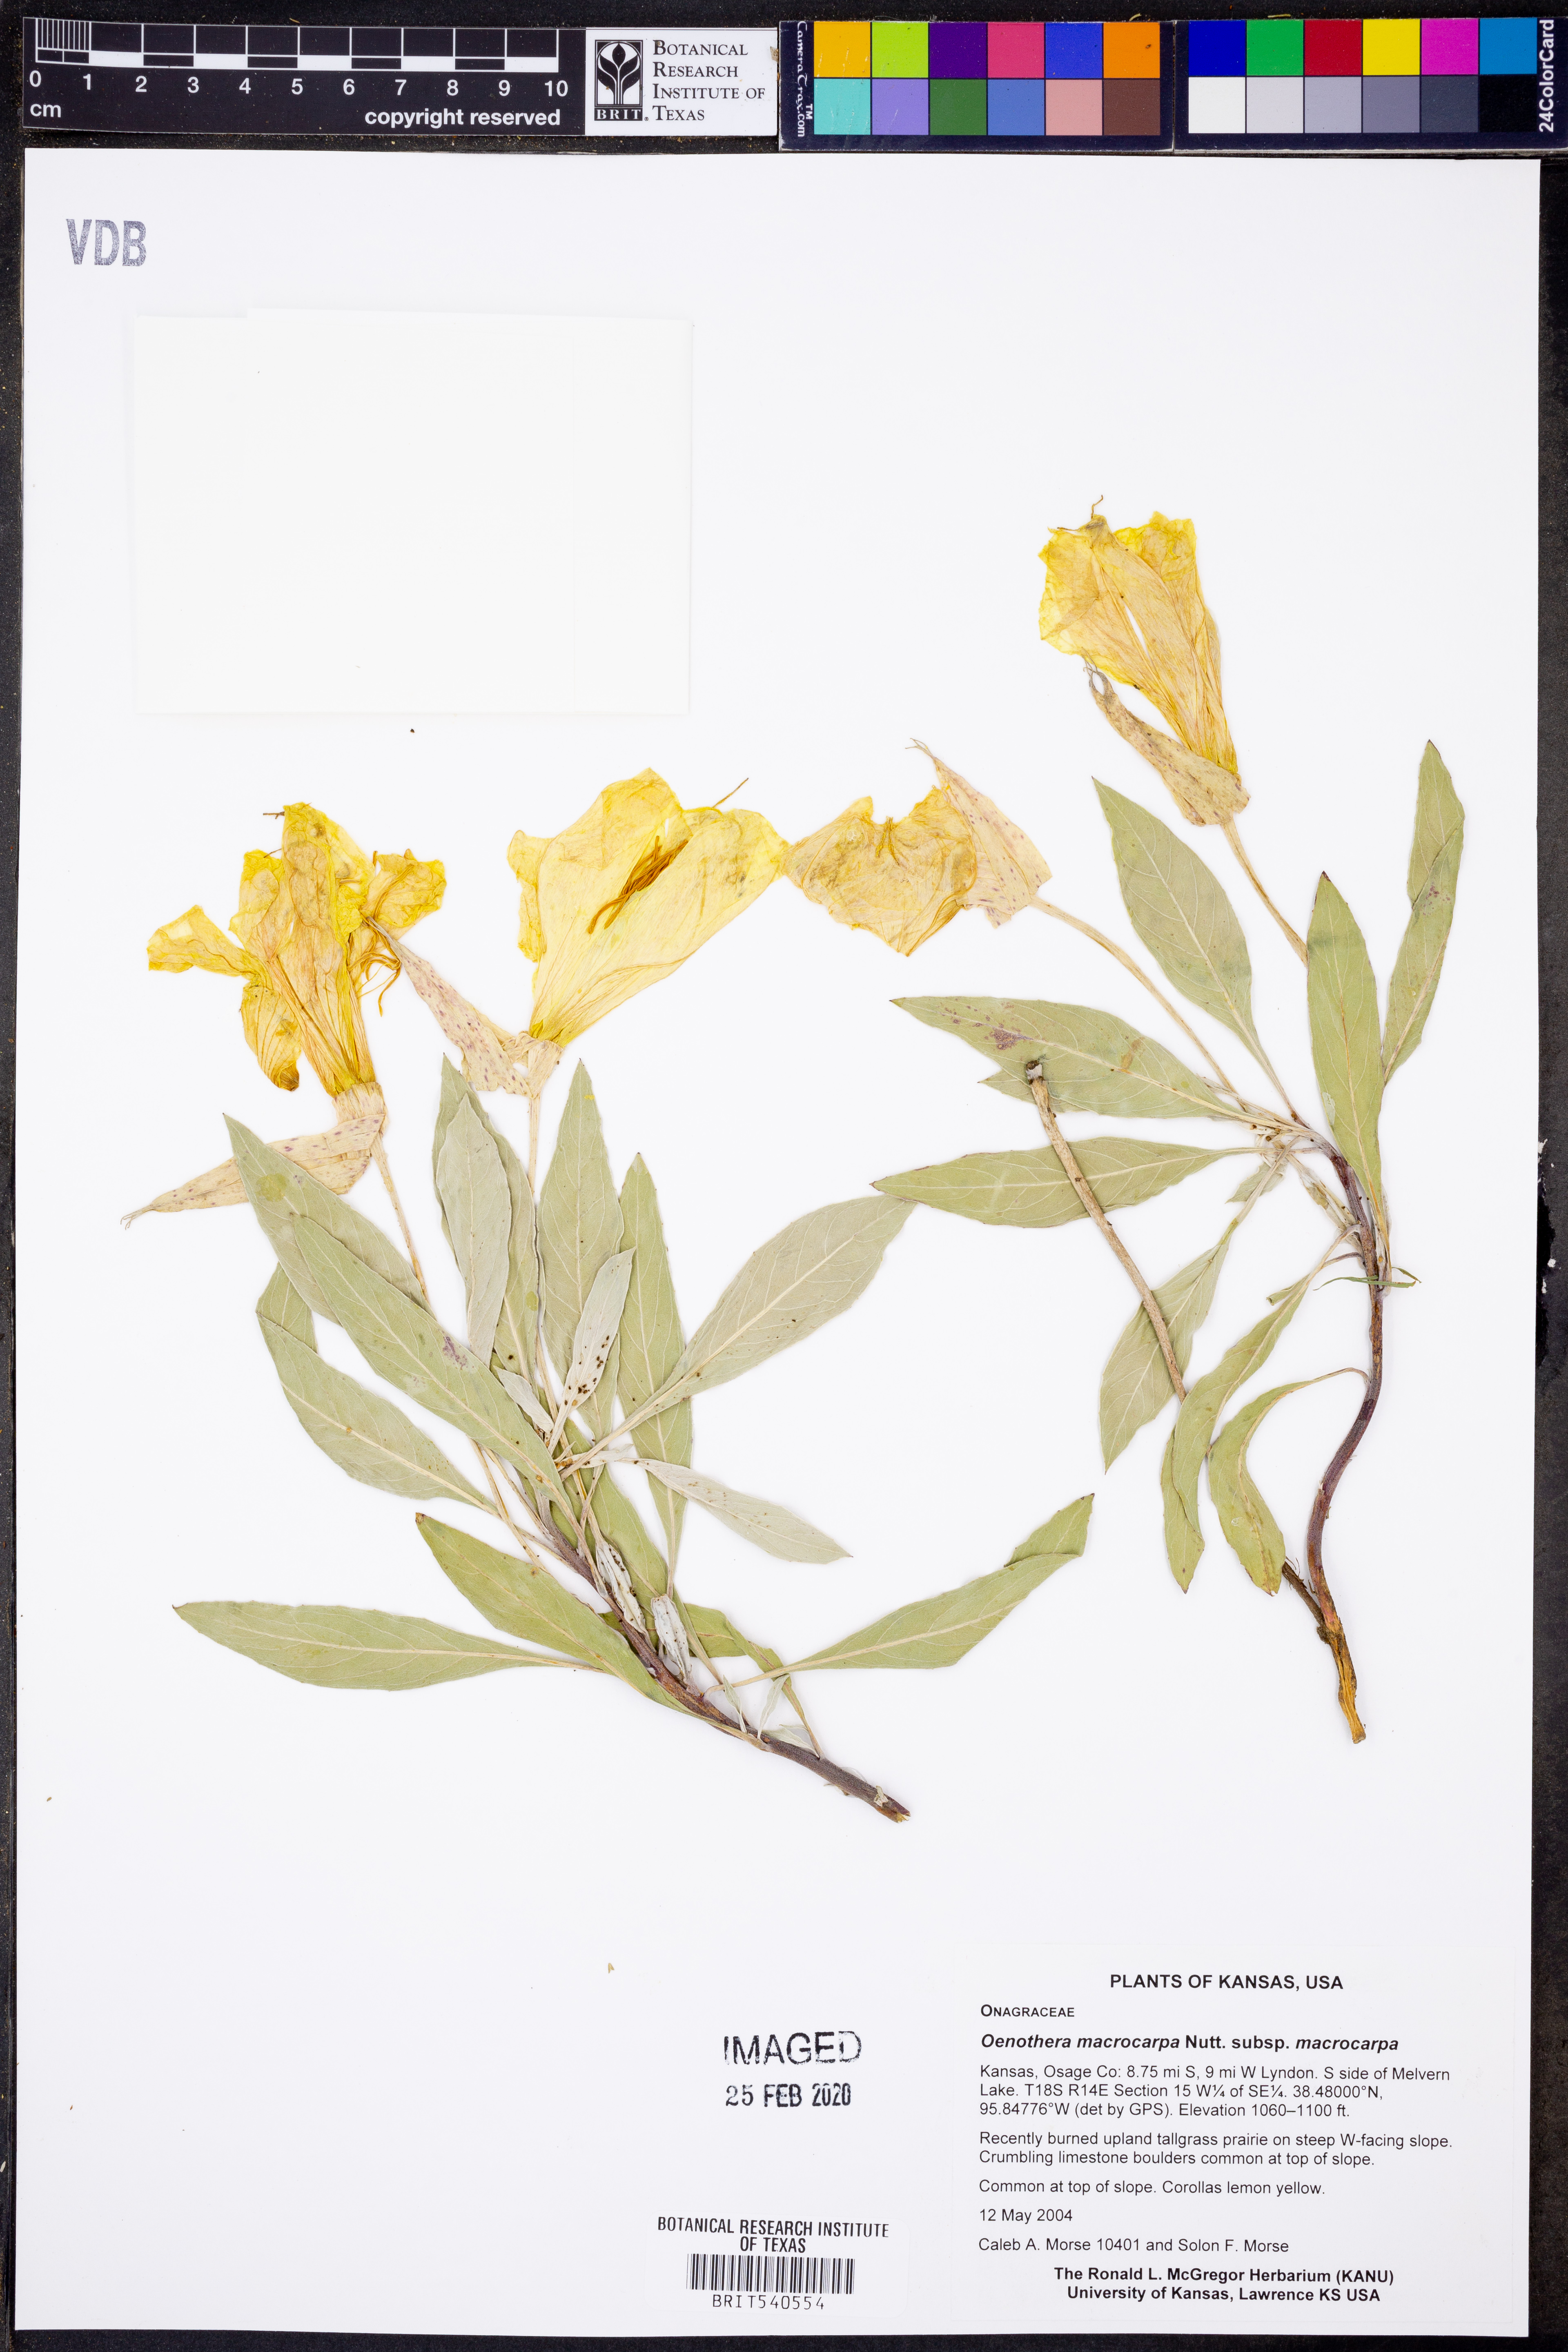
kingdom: Plantae
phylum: Tracheophyta
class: Magnoliopsida
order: Myrtales
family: Onagraceae
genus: Oenothera
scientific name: Oenothera macrocarpa
